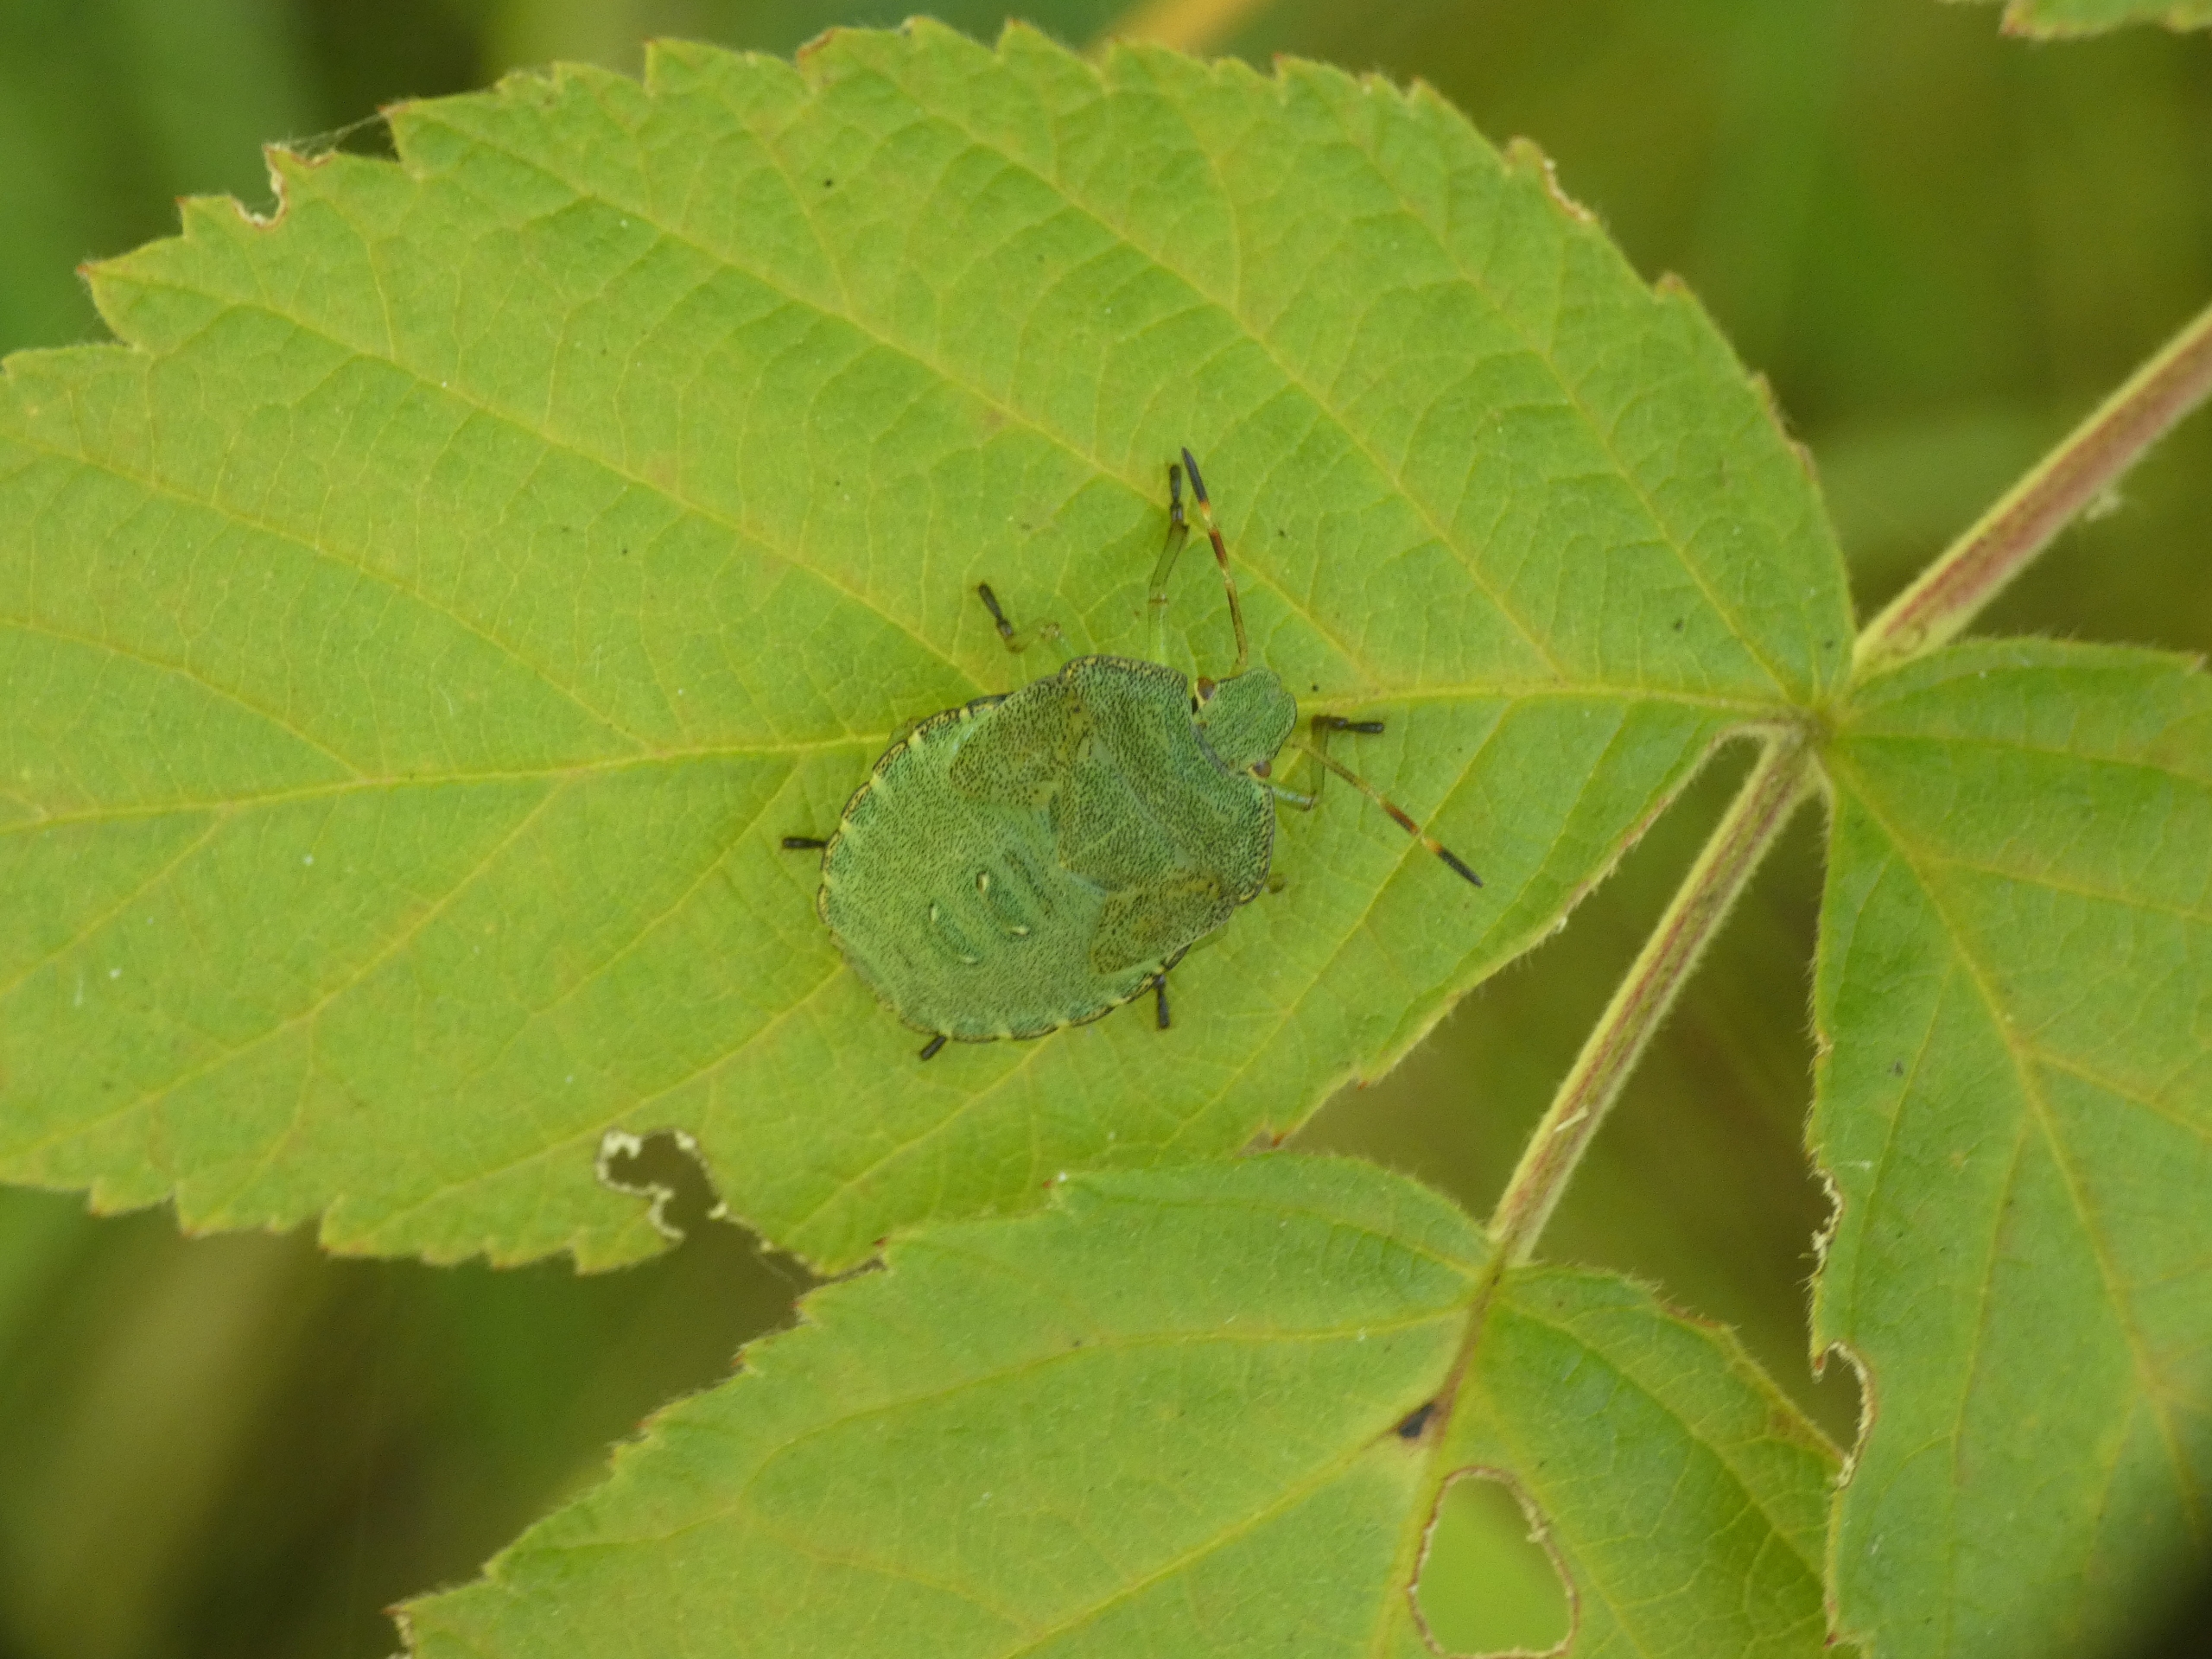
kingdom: Animalia
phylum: Arthropoda
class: Insecta
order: Hemiptera
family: Pentatomidae
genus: Palomena
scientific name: Palomena prasina
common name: Grøn bredtæge
